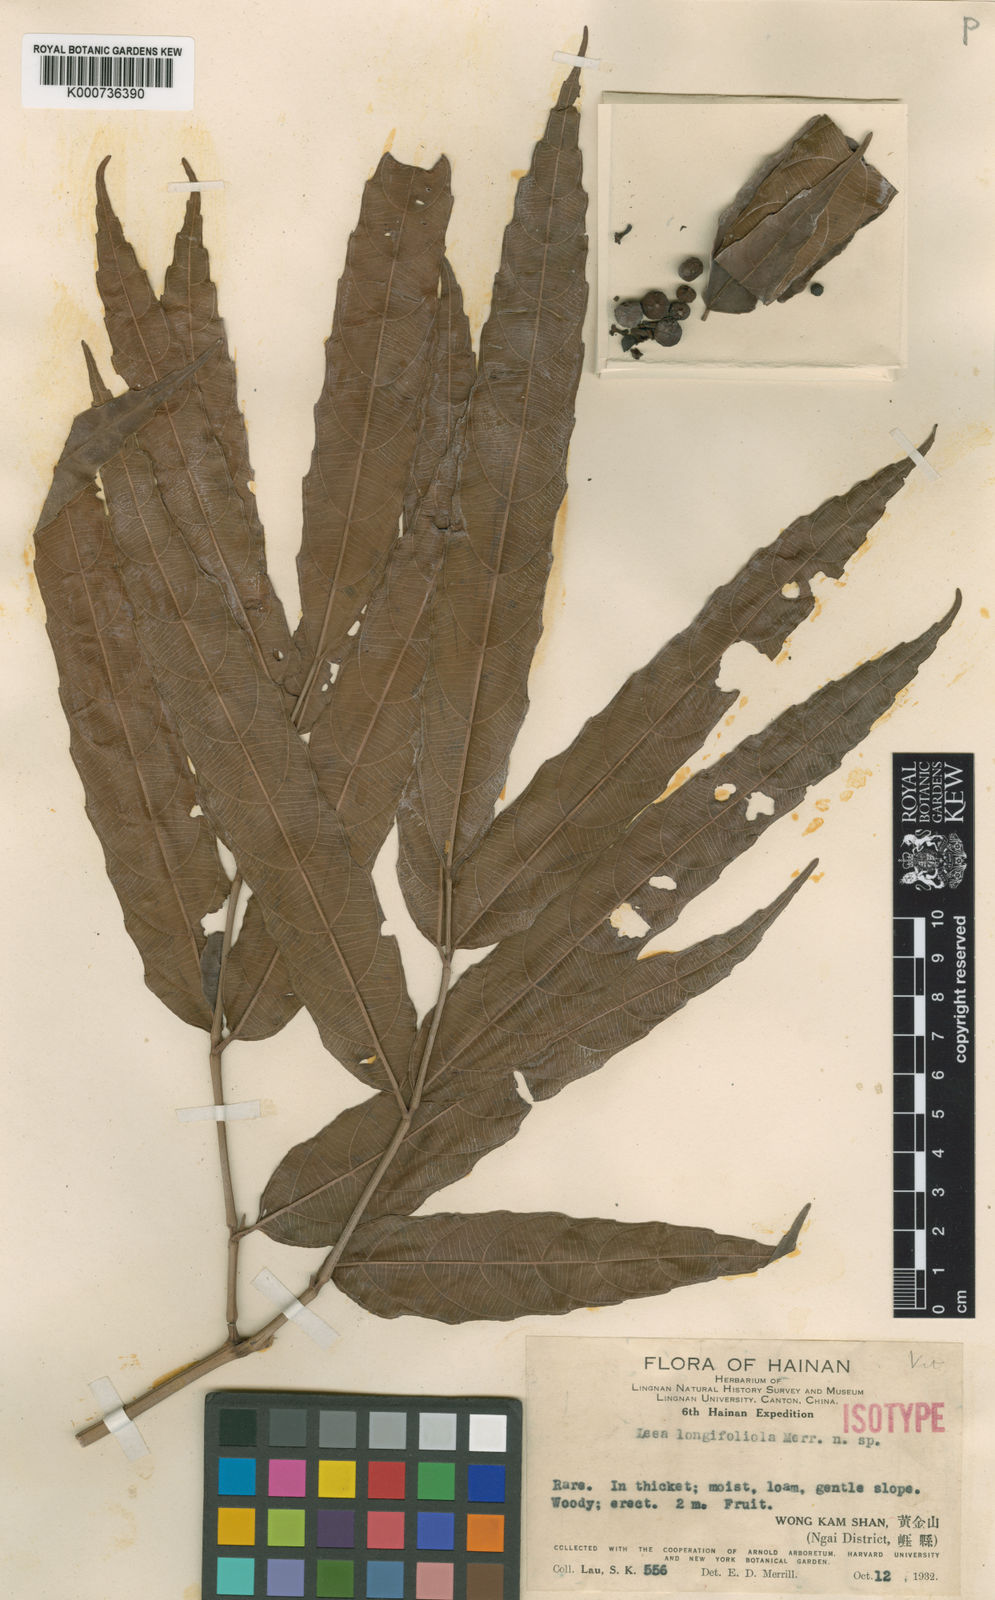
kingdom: Plantae
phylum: Tracheophyta
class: Magnoliopsida
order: Vitales
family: Vitaceae
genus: Leea
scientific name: Leea indica
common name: Bandicoot-berry
